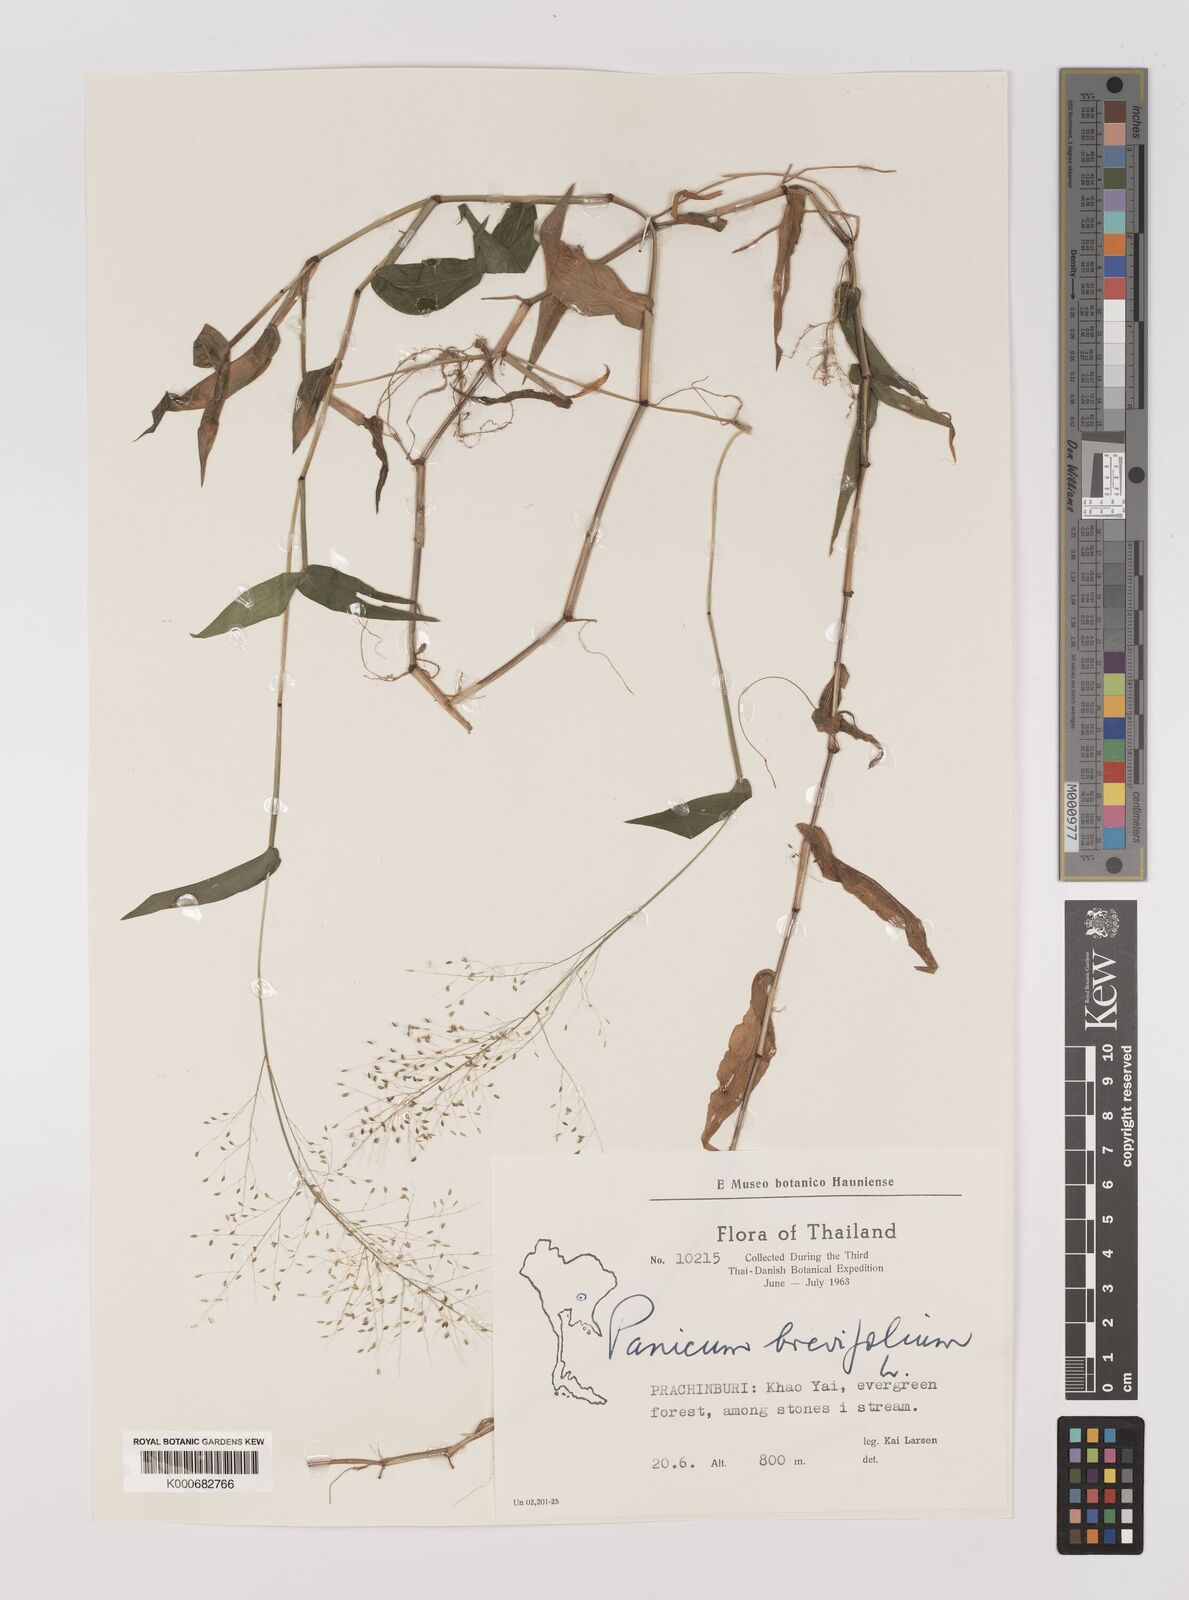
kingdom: Plantae
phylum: Tracheophyta
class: Liliopsida
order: Poales
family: Poaceae
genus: Panicum
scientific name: Panicum brevifolium
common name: Shortleaf panic grass
